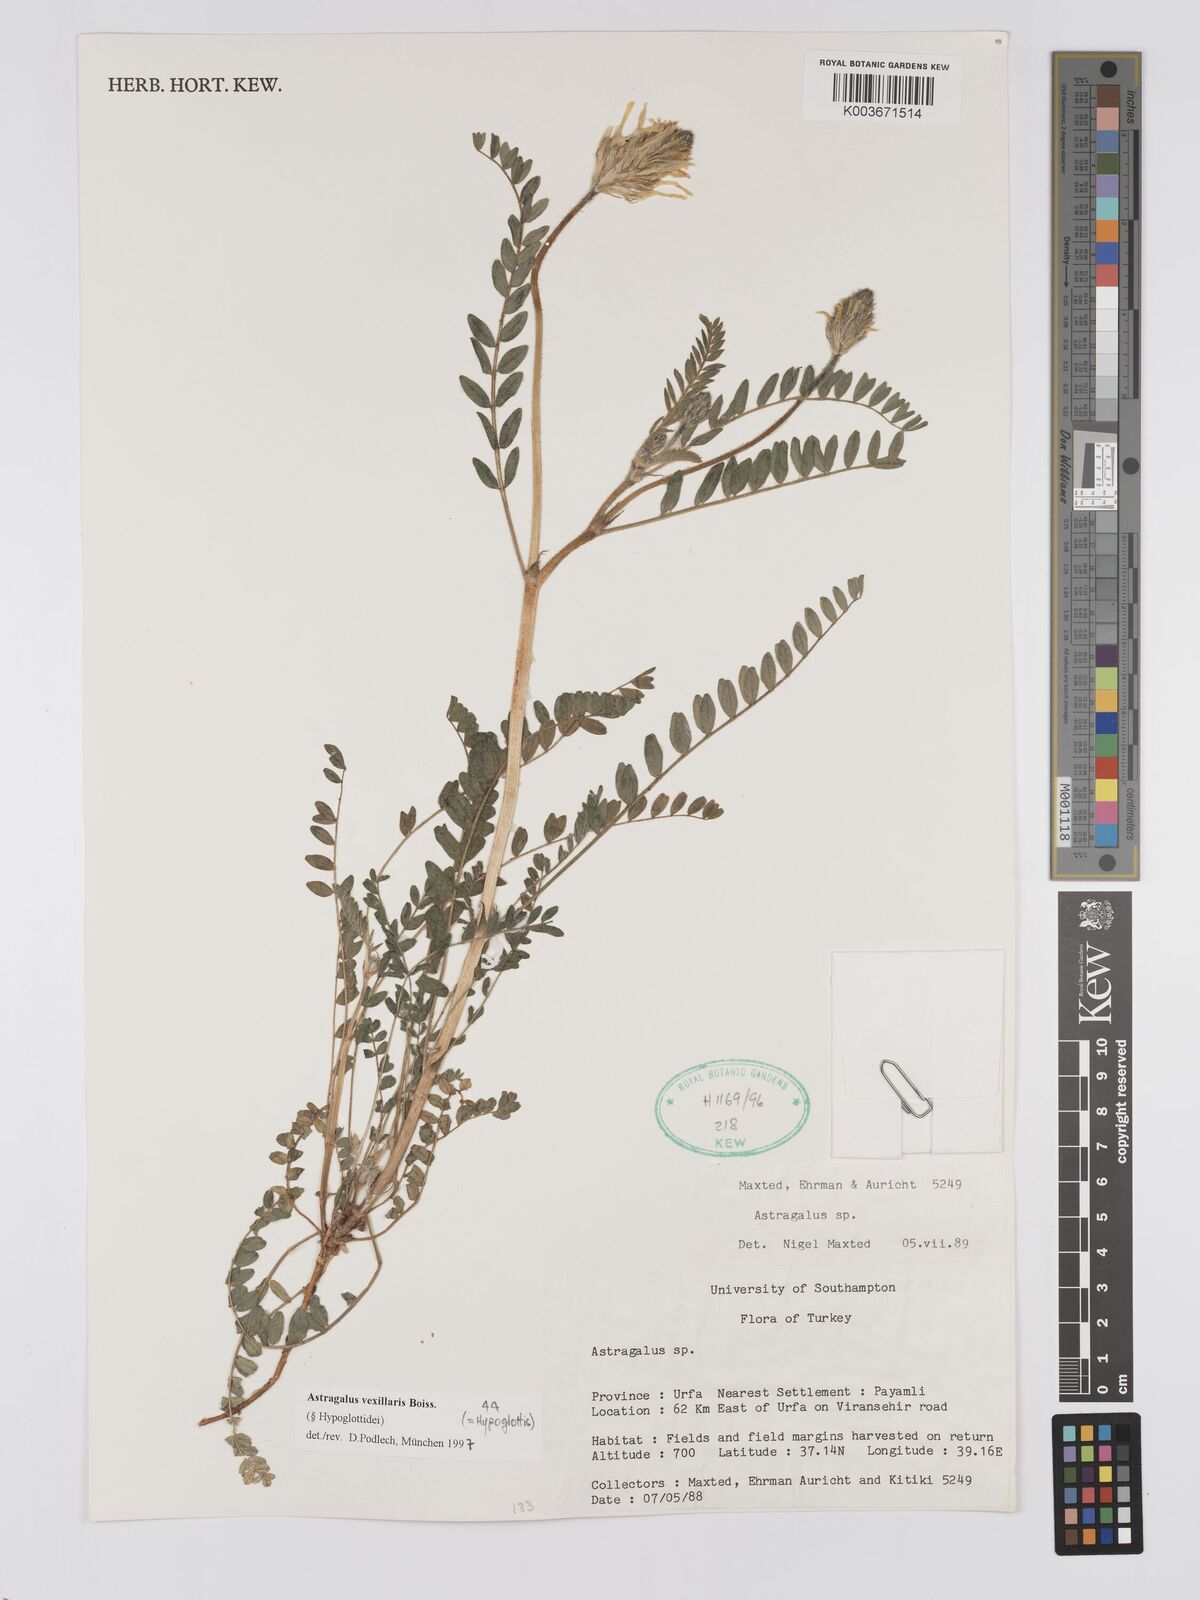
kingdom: Plantae
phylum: Tracheophyta
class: Magnoliopsida
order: Fabales
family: Fabaceae
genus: Astragalus
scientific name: Astragalus vexillaris
